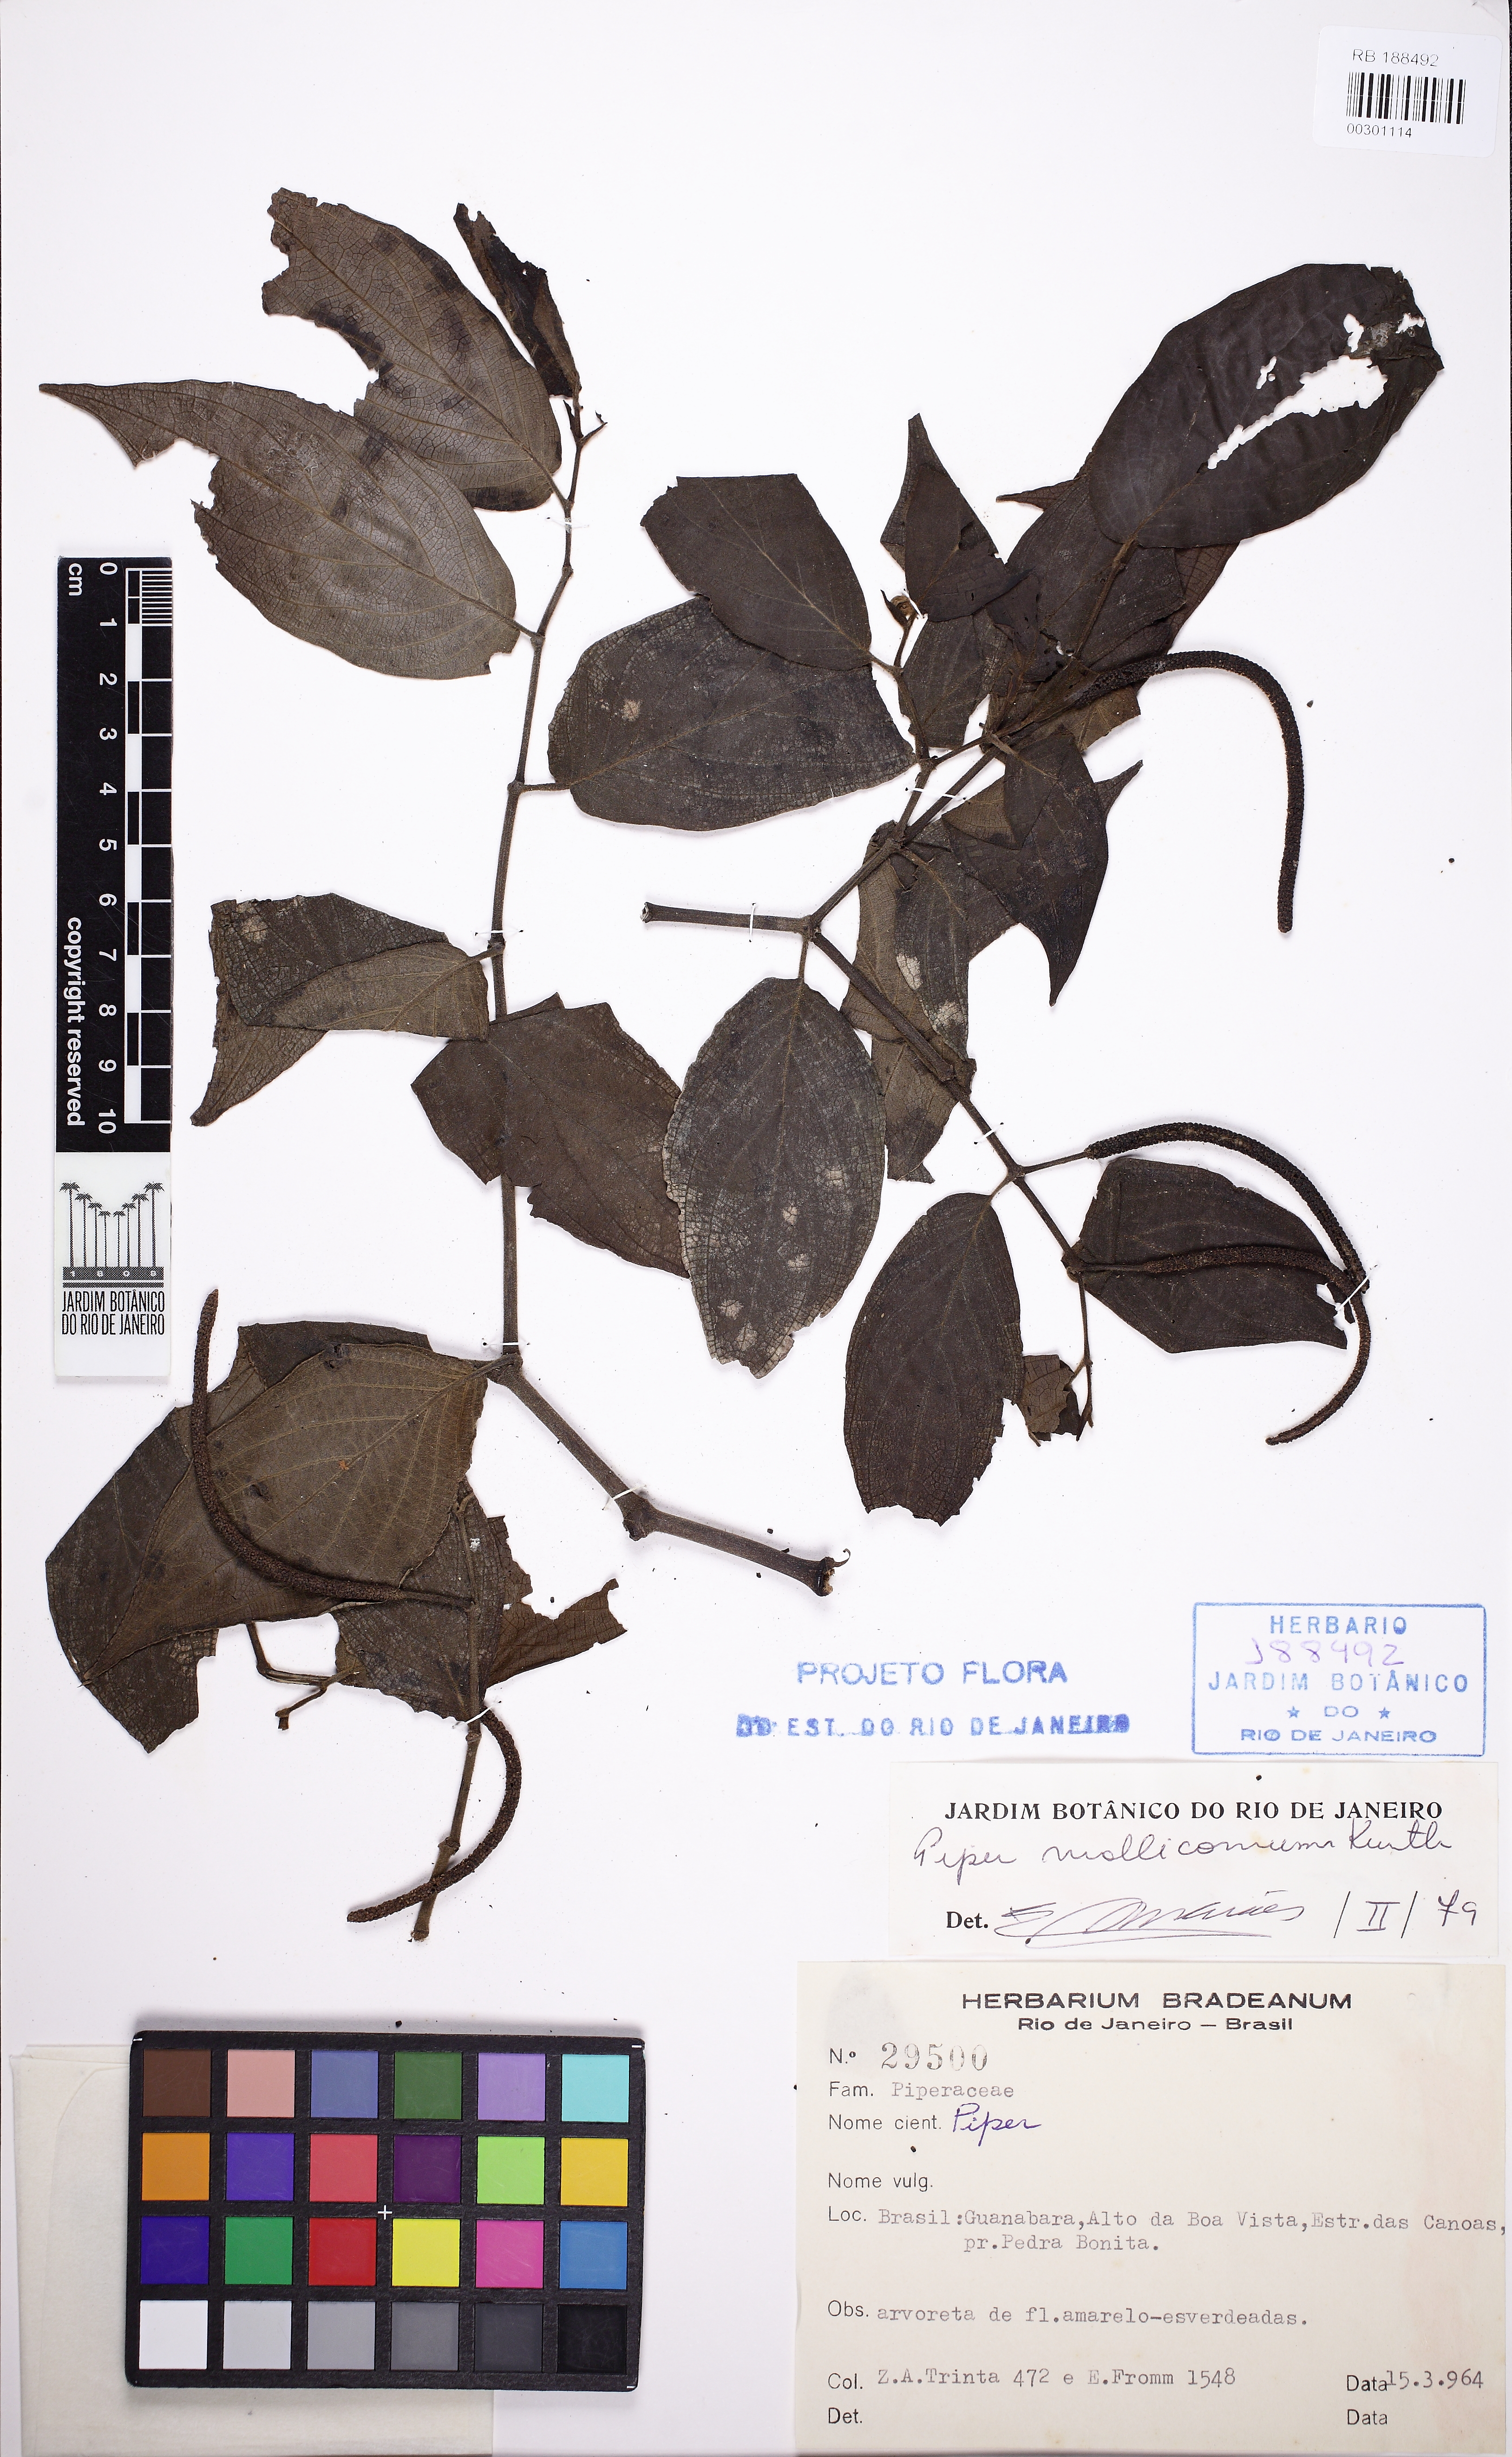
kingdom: Plantae
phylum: Tracheophyta
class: Magnoliopsida
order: Piperales
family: Piperaceae
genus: Piper
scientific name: Piper mollicomum
